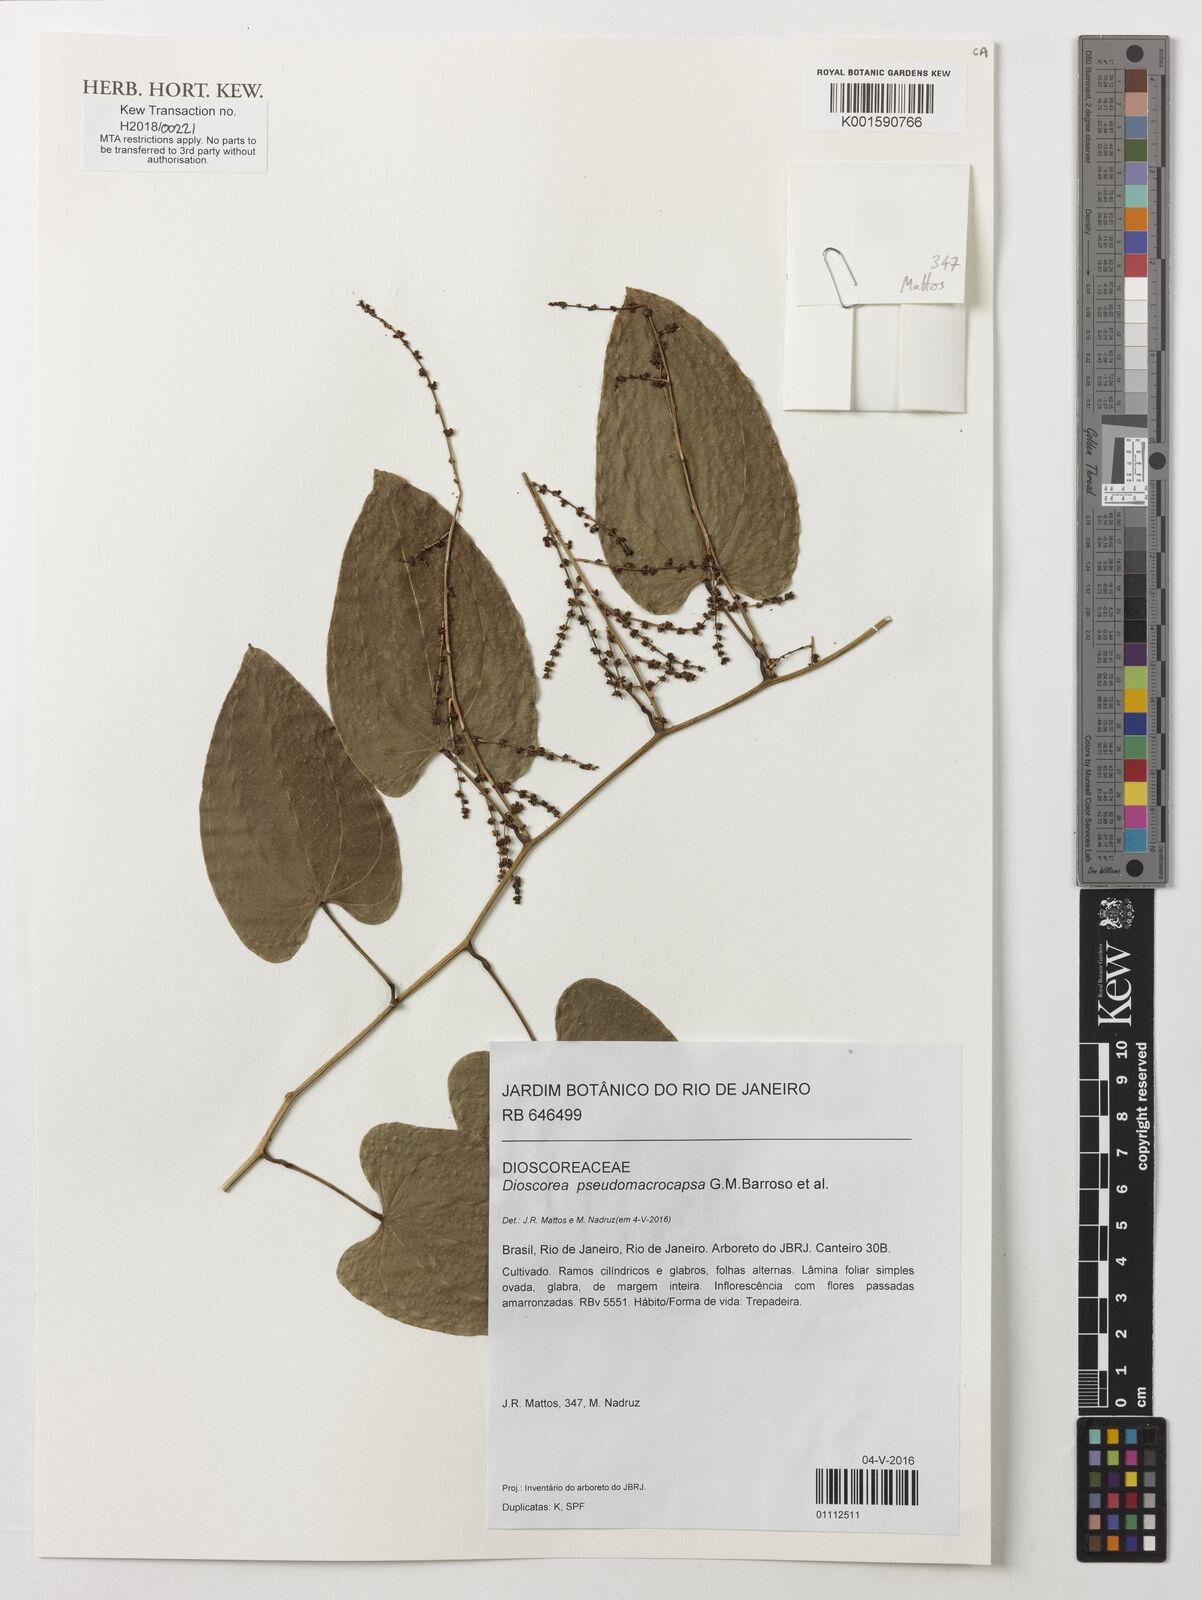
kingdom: Plantae
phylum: Tracheophyta
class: Liliopsida
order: Dioscoreales
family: Dioscoreaceae
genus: Dioscorea
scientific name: Dioscorea pseudomacrocapsa
